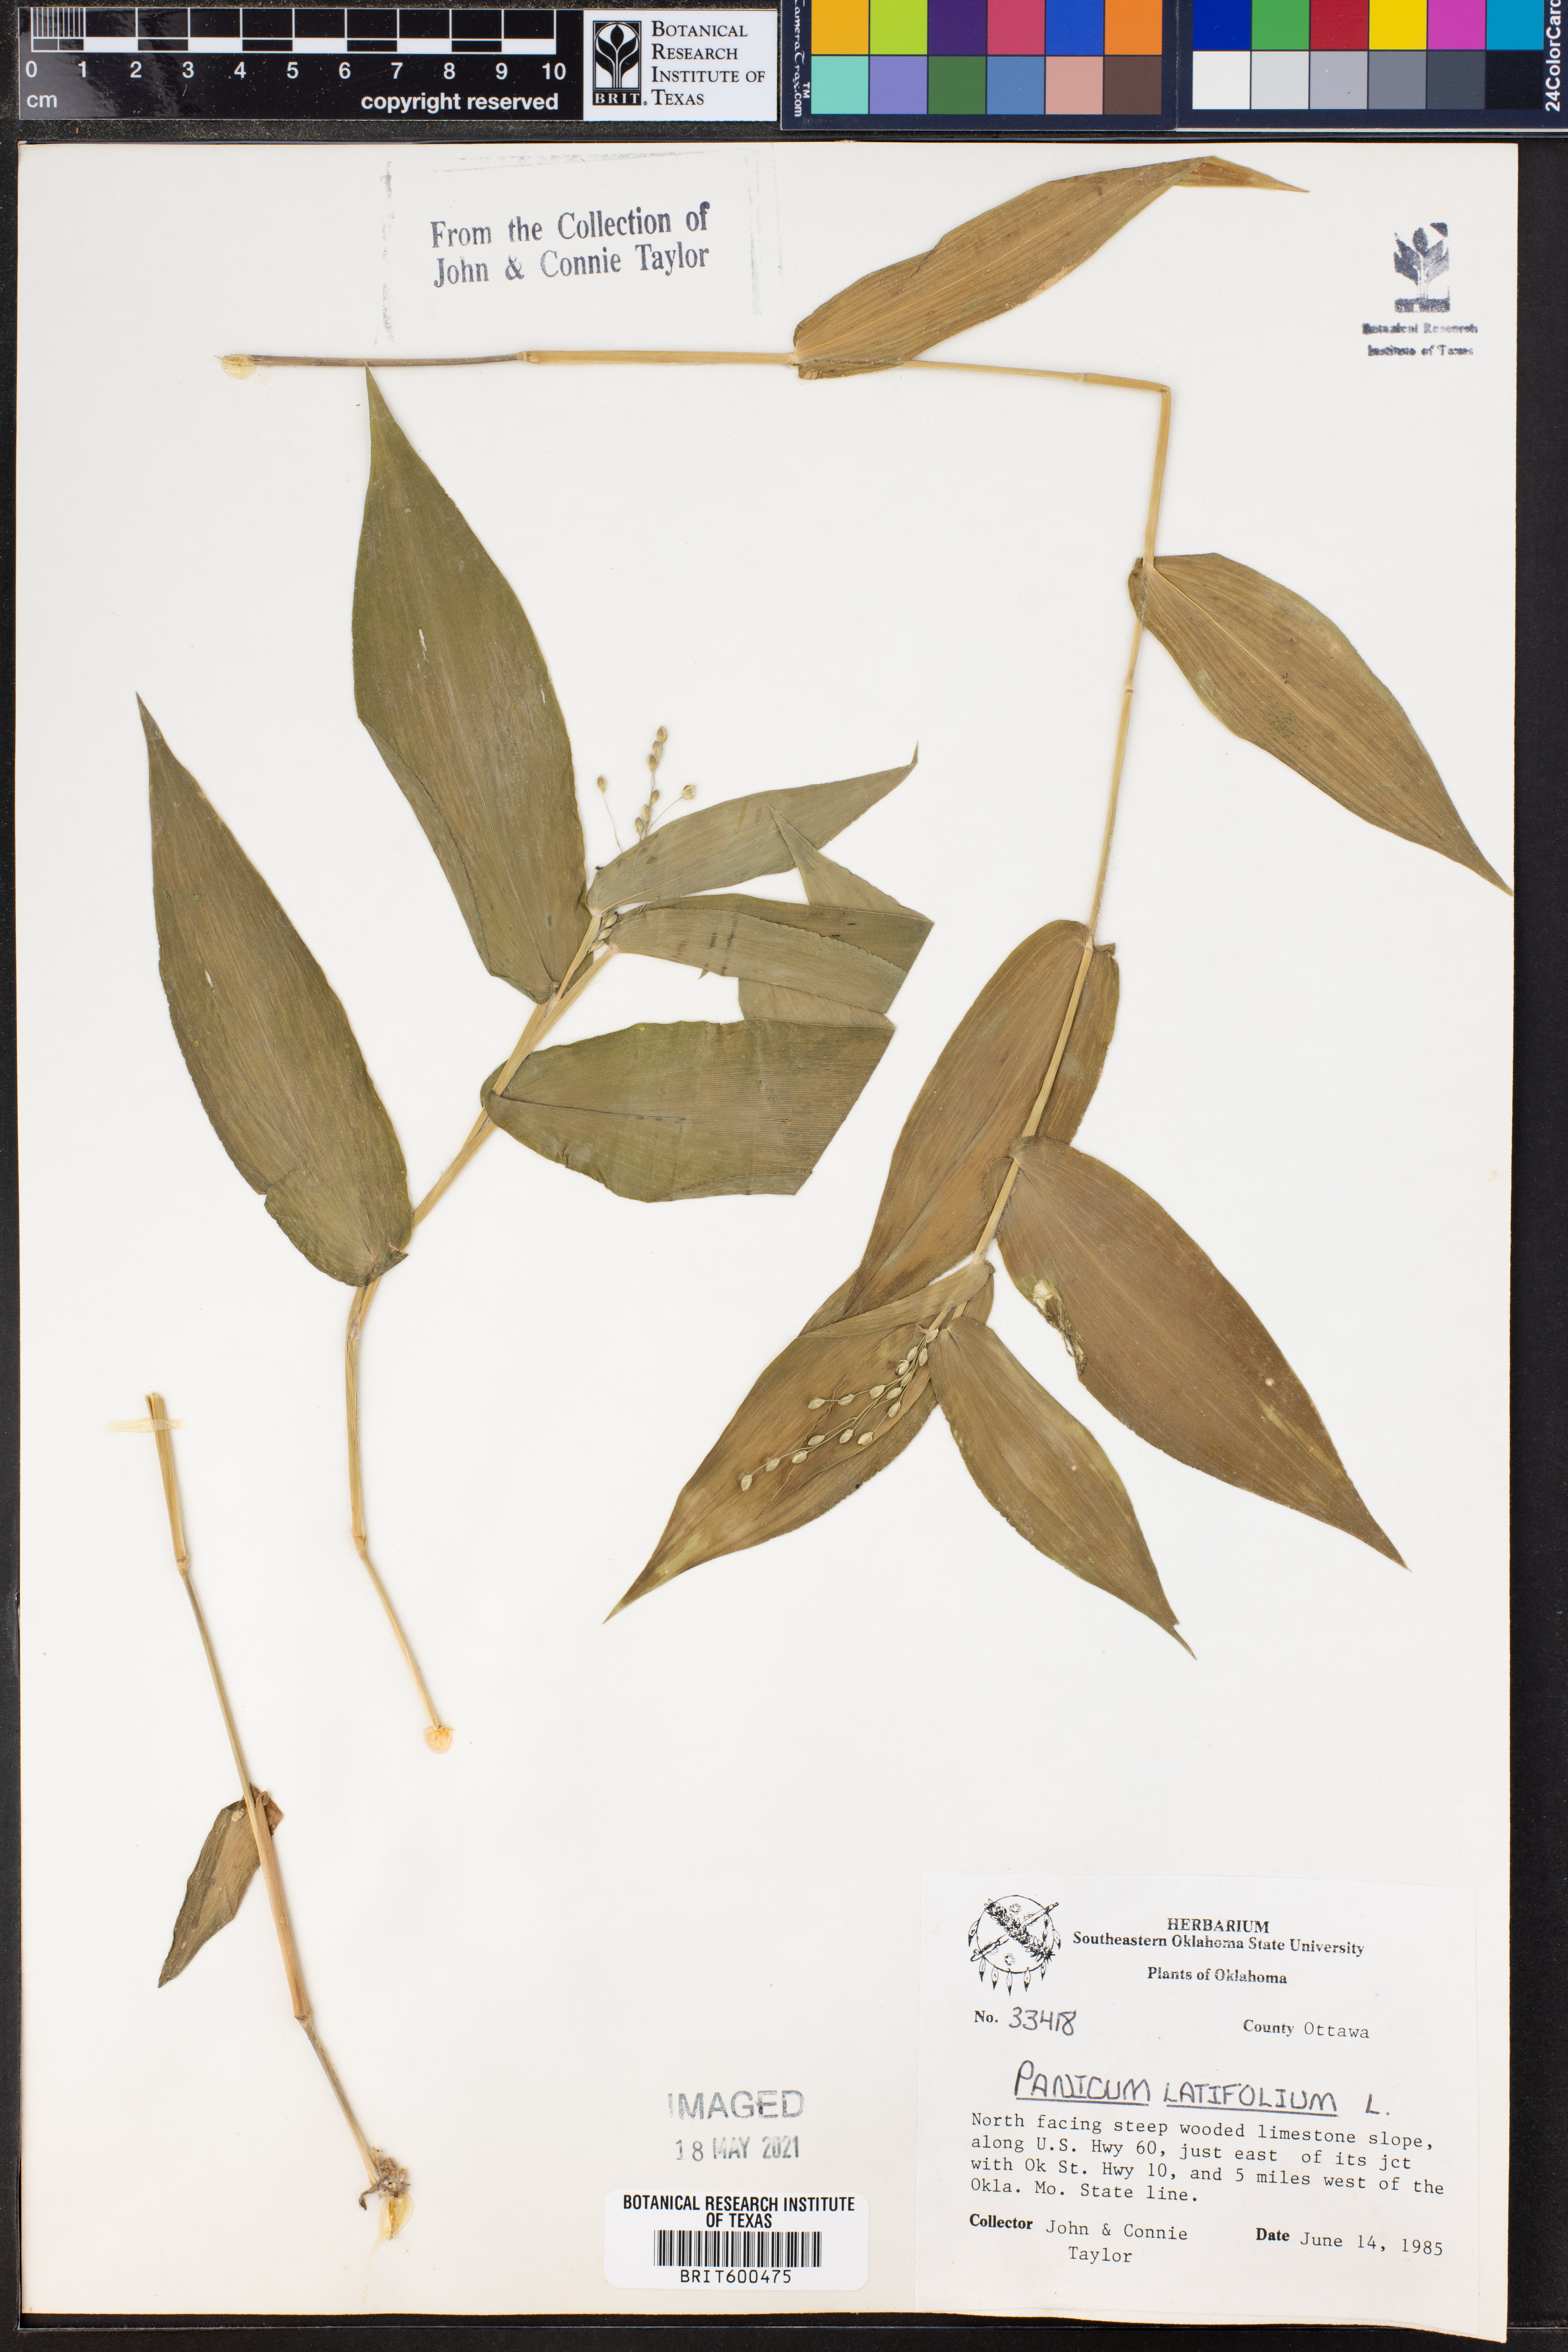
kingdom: Plantae
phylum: Tracheophyta
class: Liliopsida
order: Poales
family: Poaceae
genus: Dichanthelium
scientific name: Dichanthelium latifolium
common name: Broad-leaved panicgrass
